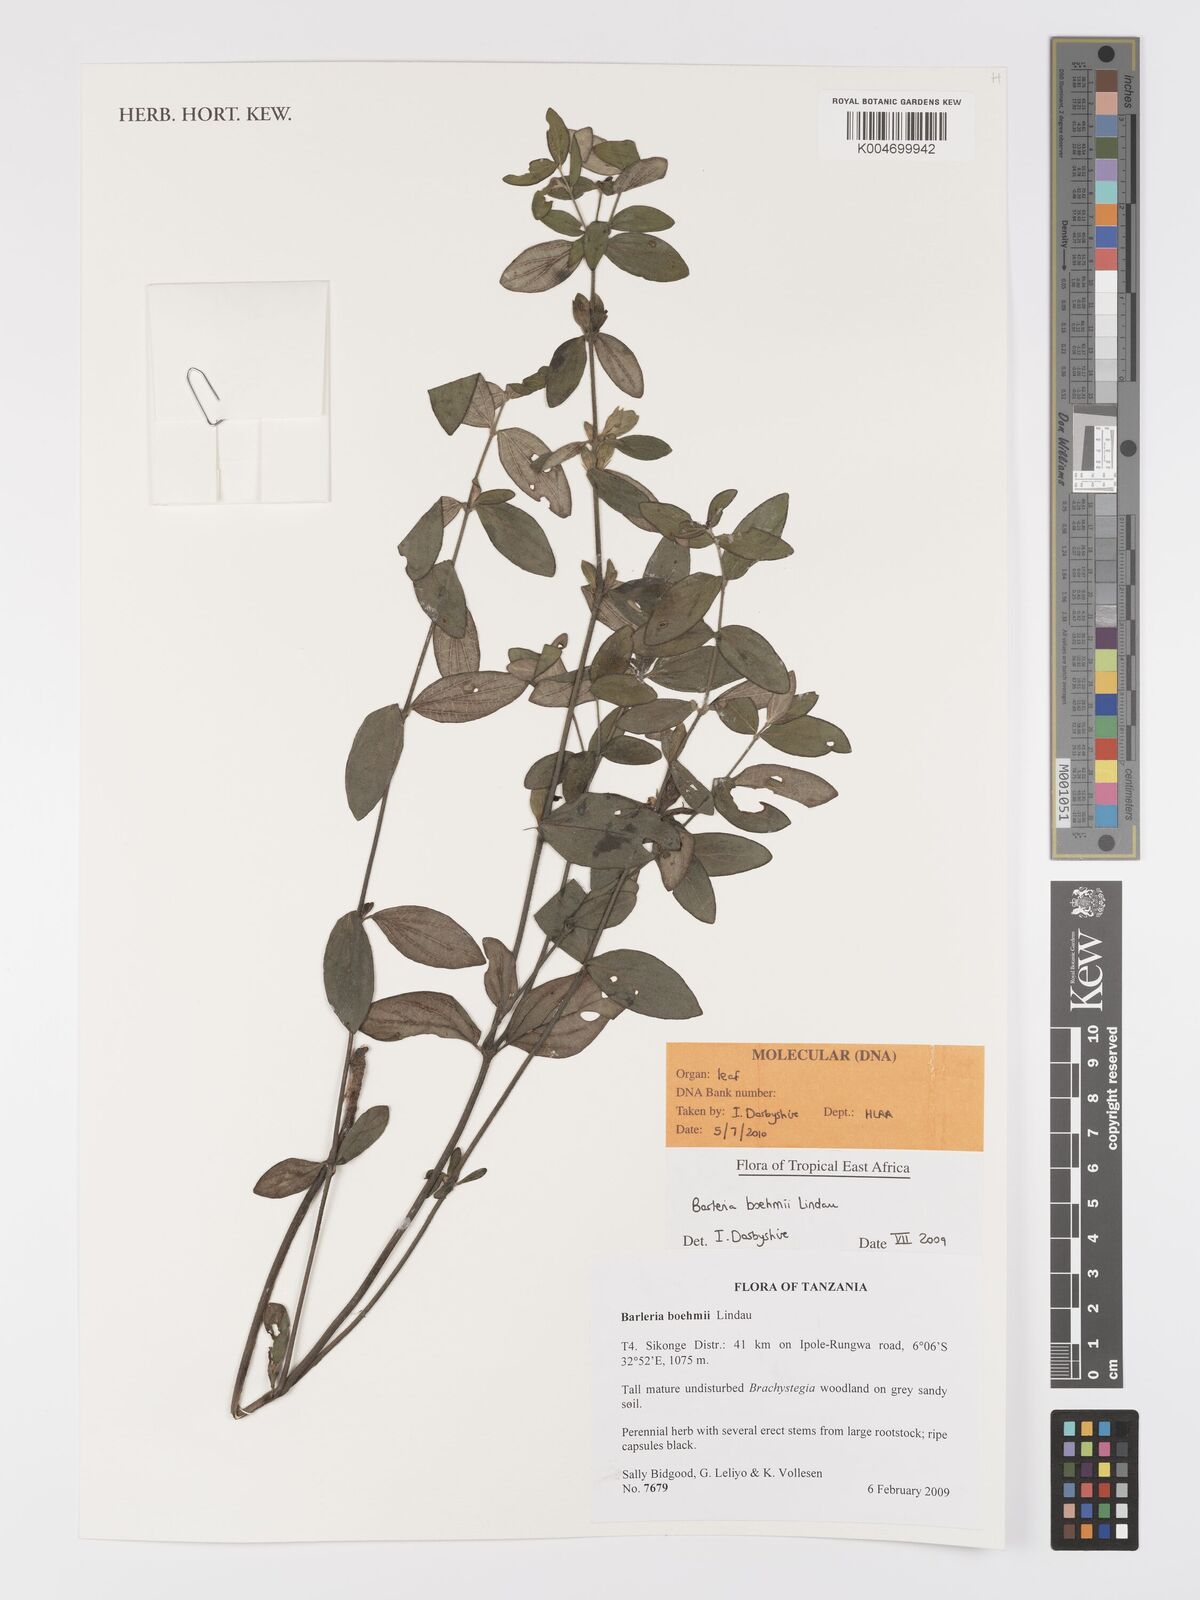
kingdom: Plantae
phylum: Tracheophyta
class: Magnoliopsida
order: Lamiales
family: Acanthaceae
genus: Barleria
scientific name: Barleria boehmii
